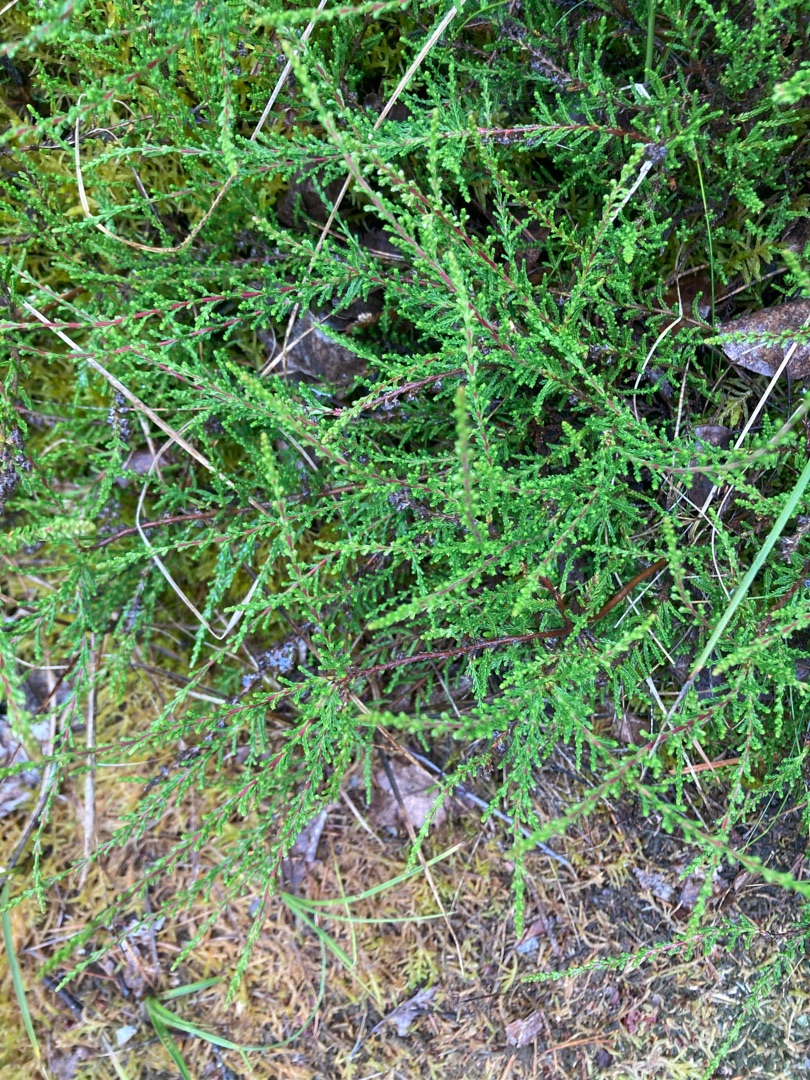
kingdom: Plantae
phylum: Tracheophyta
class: Magnoliopsida
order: Ericales
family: Ericaceae
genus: Calluna
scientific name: Calluna vulgaris
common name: Hedelyng
